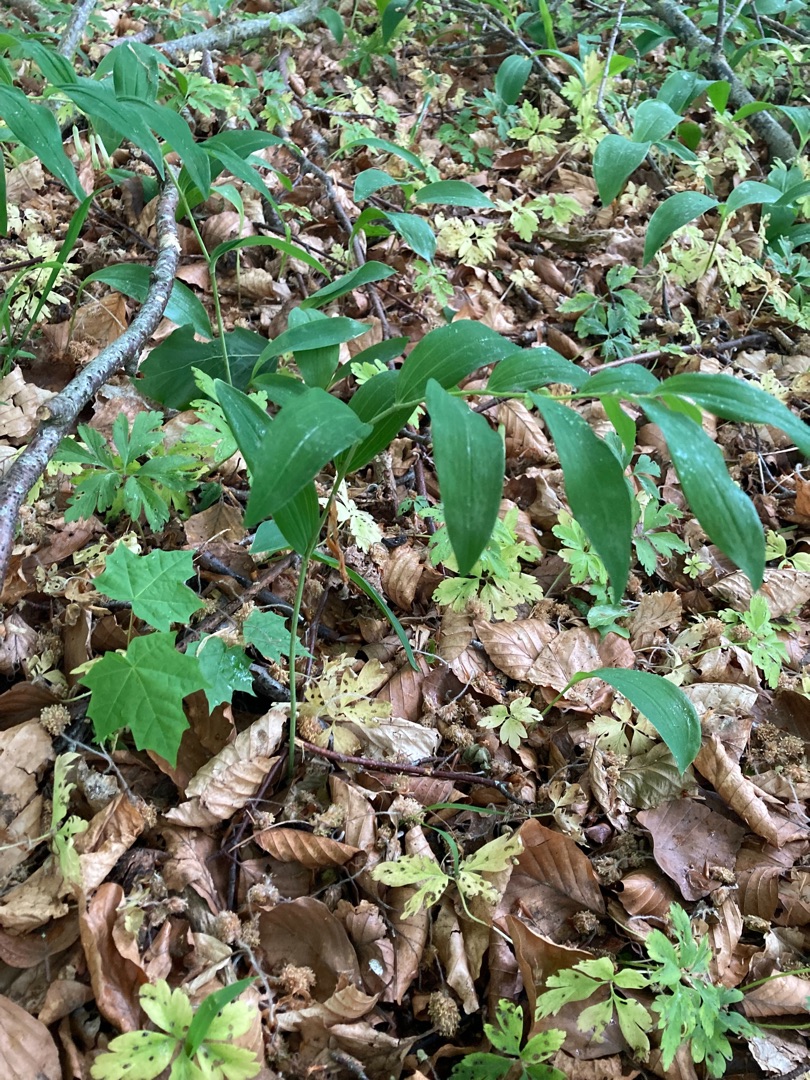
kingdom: Plantae
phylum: Tracheophyta
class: Liliopsida
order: Asparagales
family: Asparagaceae
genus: Polygonatum
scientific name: Polygonatum multiflorum
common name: Stor konval
